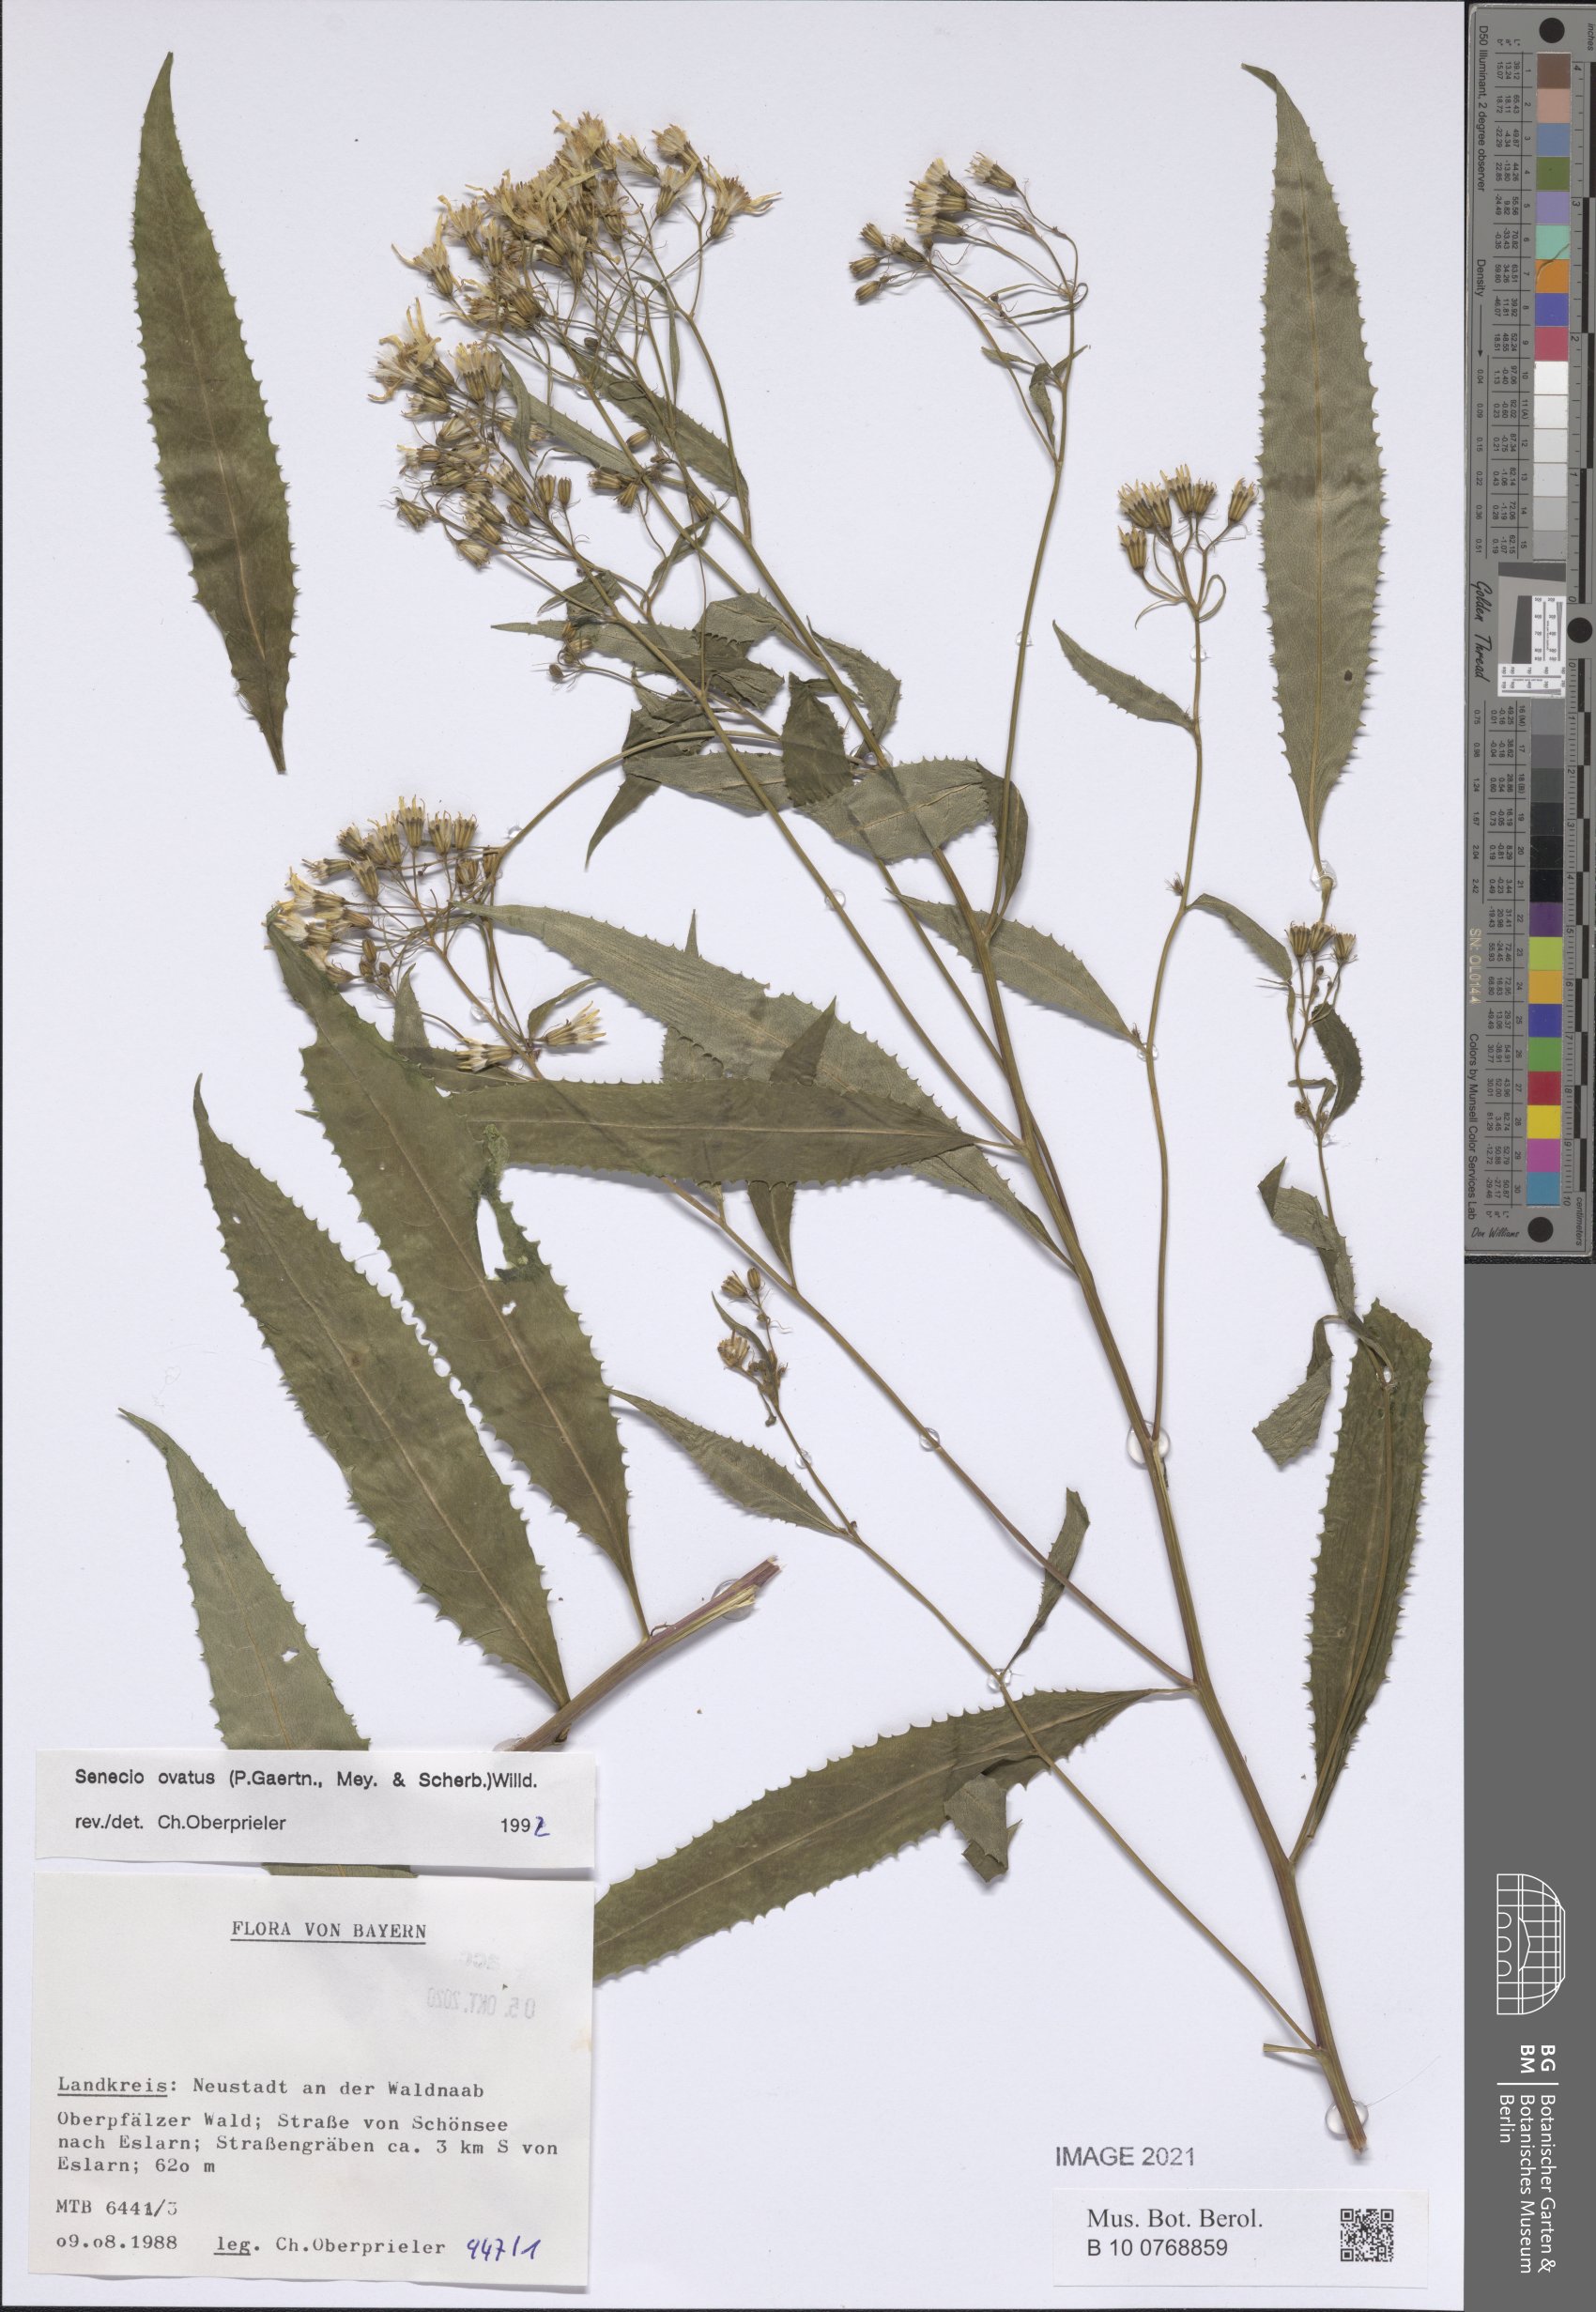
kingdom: Plantae
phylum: Tracheophyta
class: Magnoliopsida
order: Asterales
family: Asteraceae
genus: Senecio
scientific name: Senecio ovatus
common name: Wood ragwort
